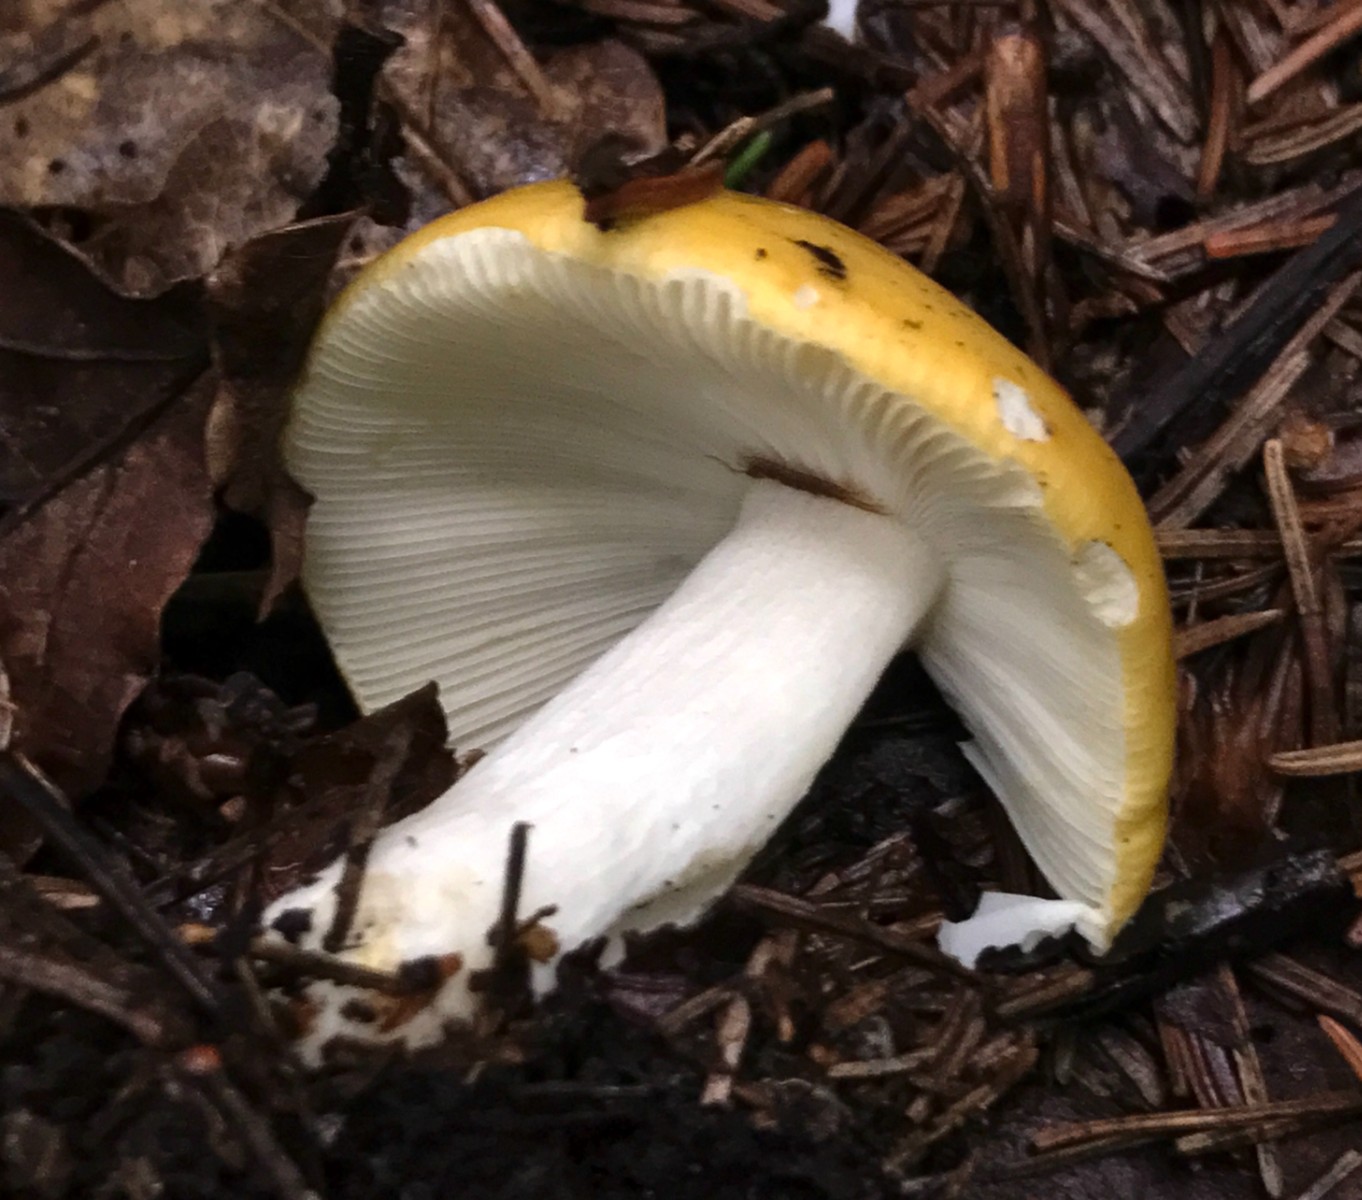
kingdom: Fungi
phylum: Basidiomycota
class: Agaricomycetes
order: Russulales
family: Russulaceae
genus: Russula
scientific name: Russula claroflava
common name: birke-skørhat
